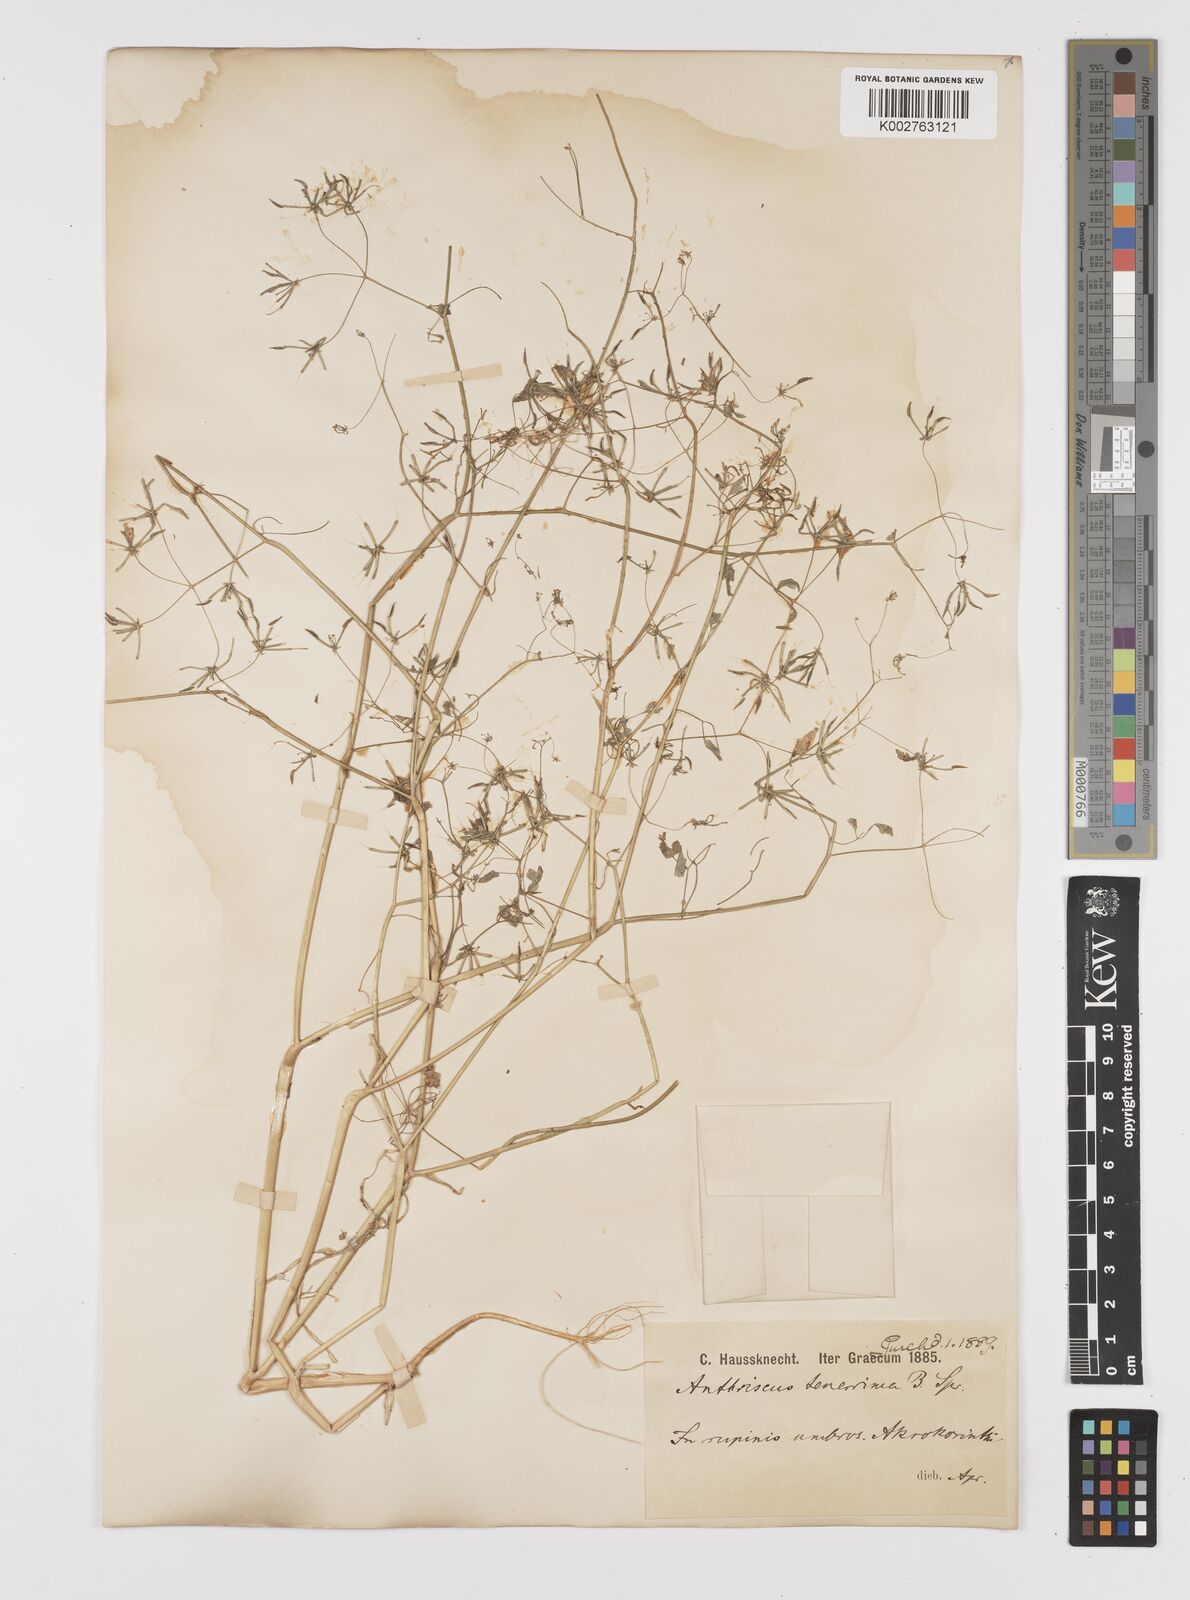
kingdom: Plantae
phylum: Tracheophyta
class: Magnoliopsida
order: Apiales
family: Apiaceae
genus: Anthriscus
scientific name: Anthriscus tenerrima
